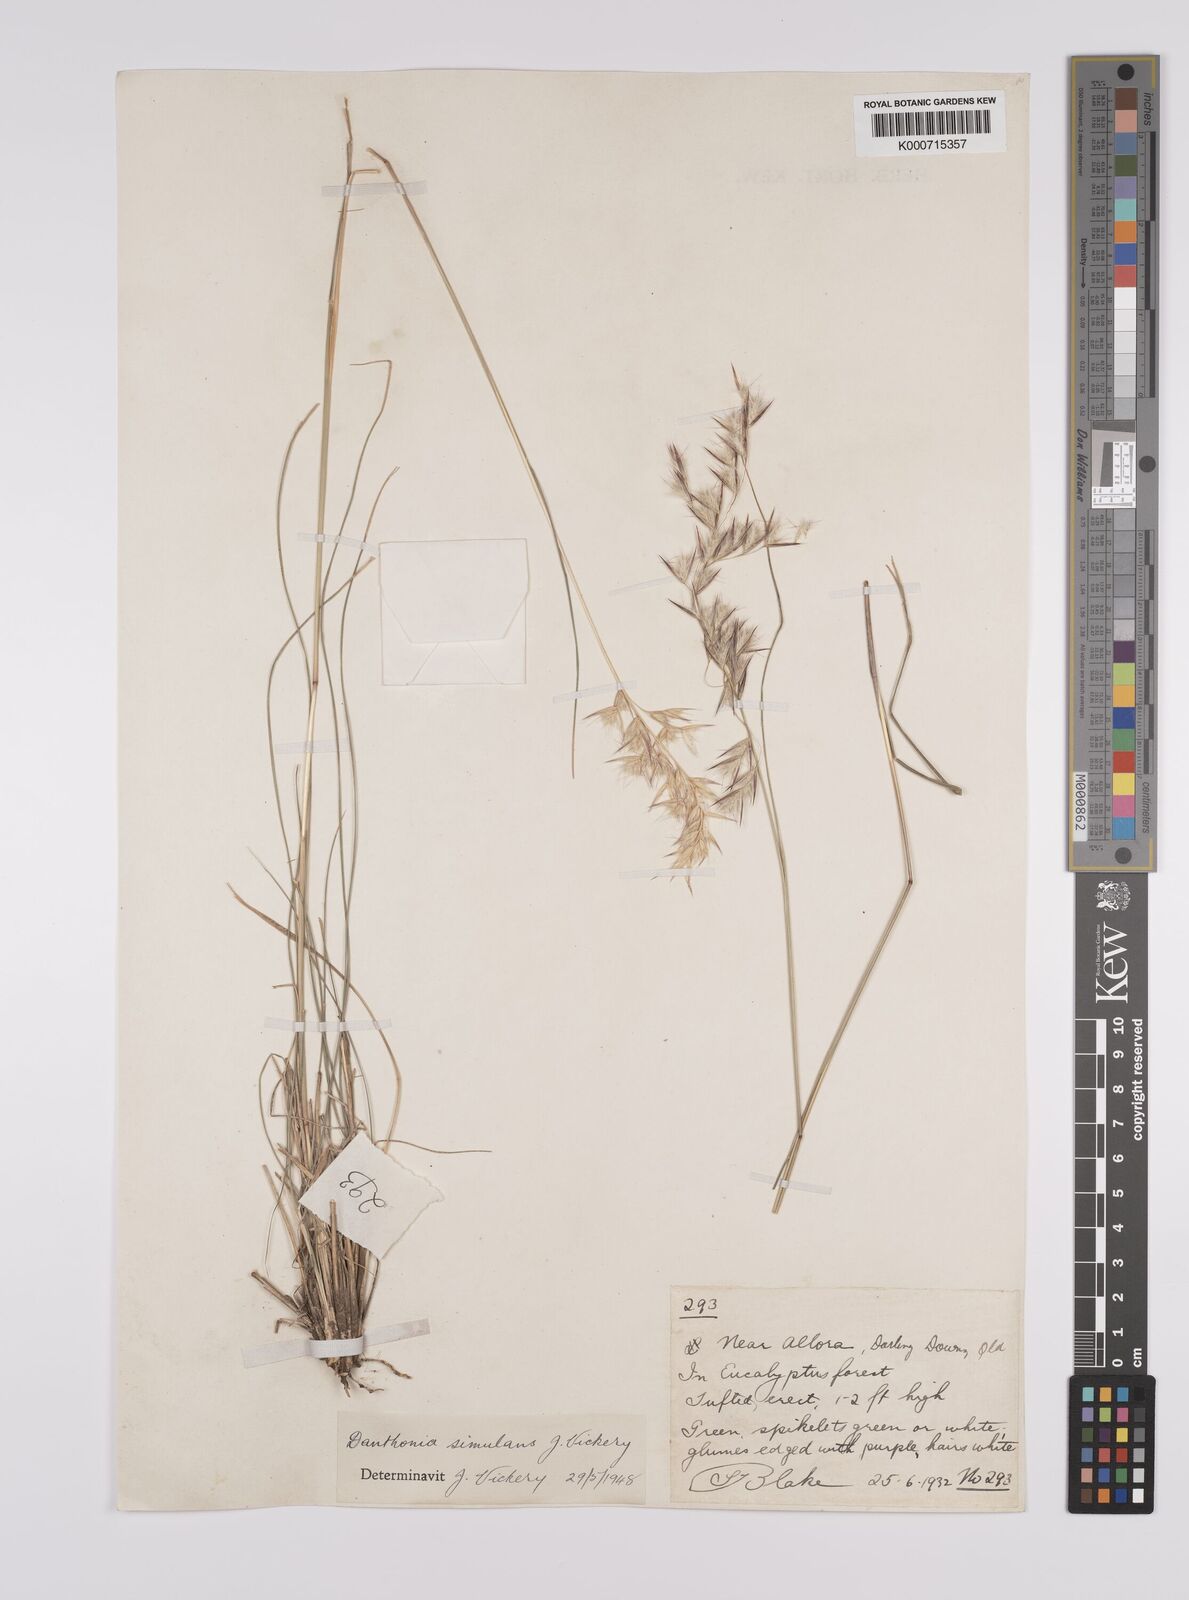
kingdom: Plantae
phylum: Tracheophyta
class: Liliopsida
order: Poales
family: Poaceae
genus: Rytidosperma
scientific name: Rytidosperma bipartitum
